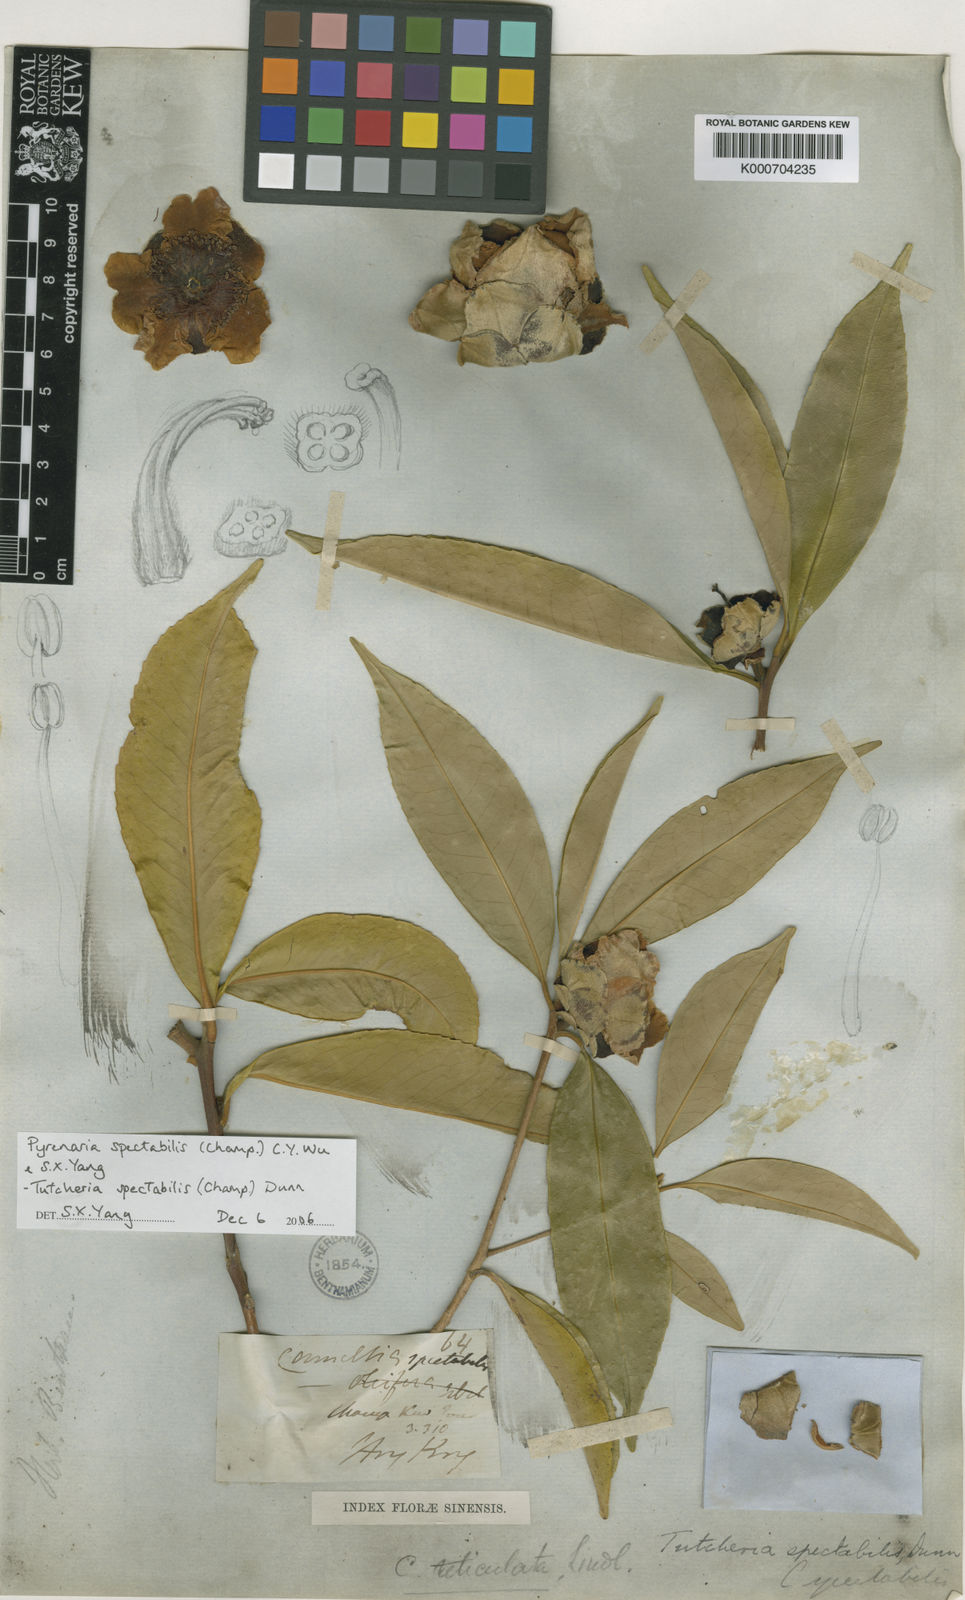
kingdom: Plantae
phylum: Tracheophyta
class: Magnoliopsida
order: Ericales
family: Theaceae
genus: Pyrenaria
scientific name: Pyrenaria spectabilis
